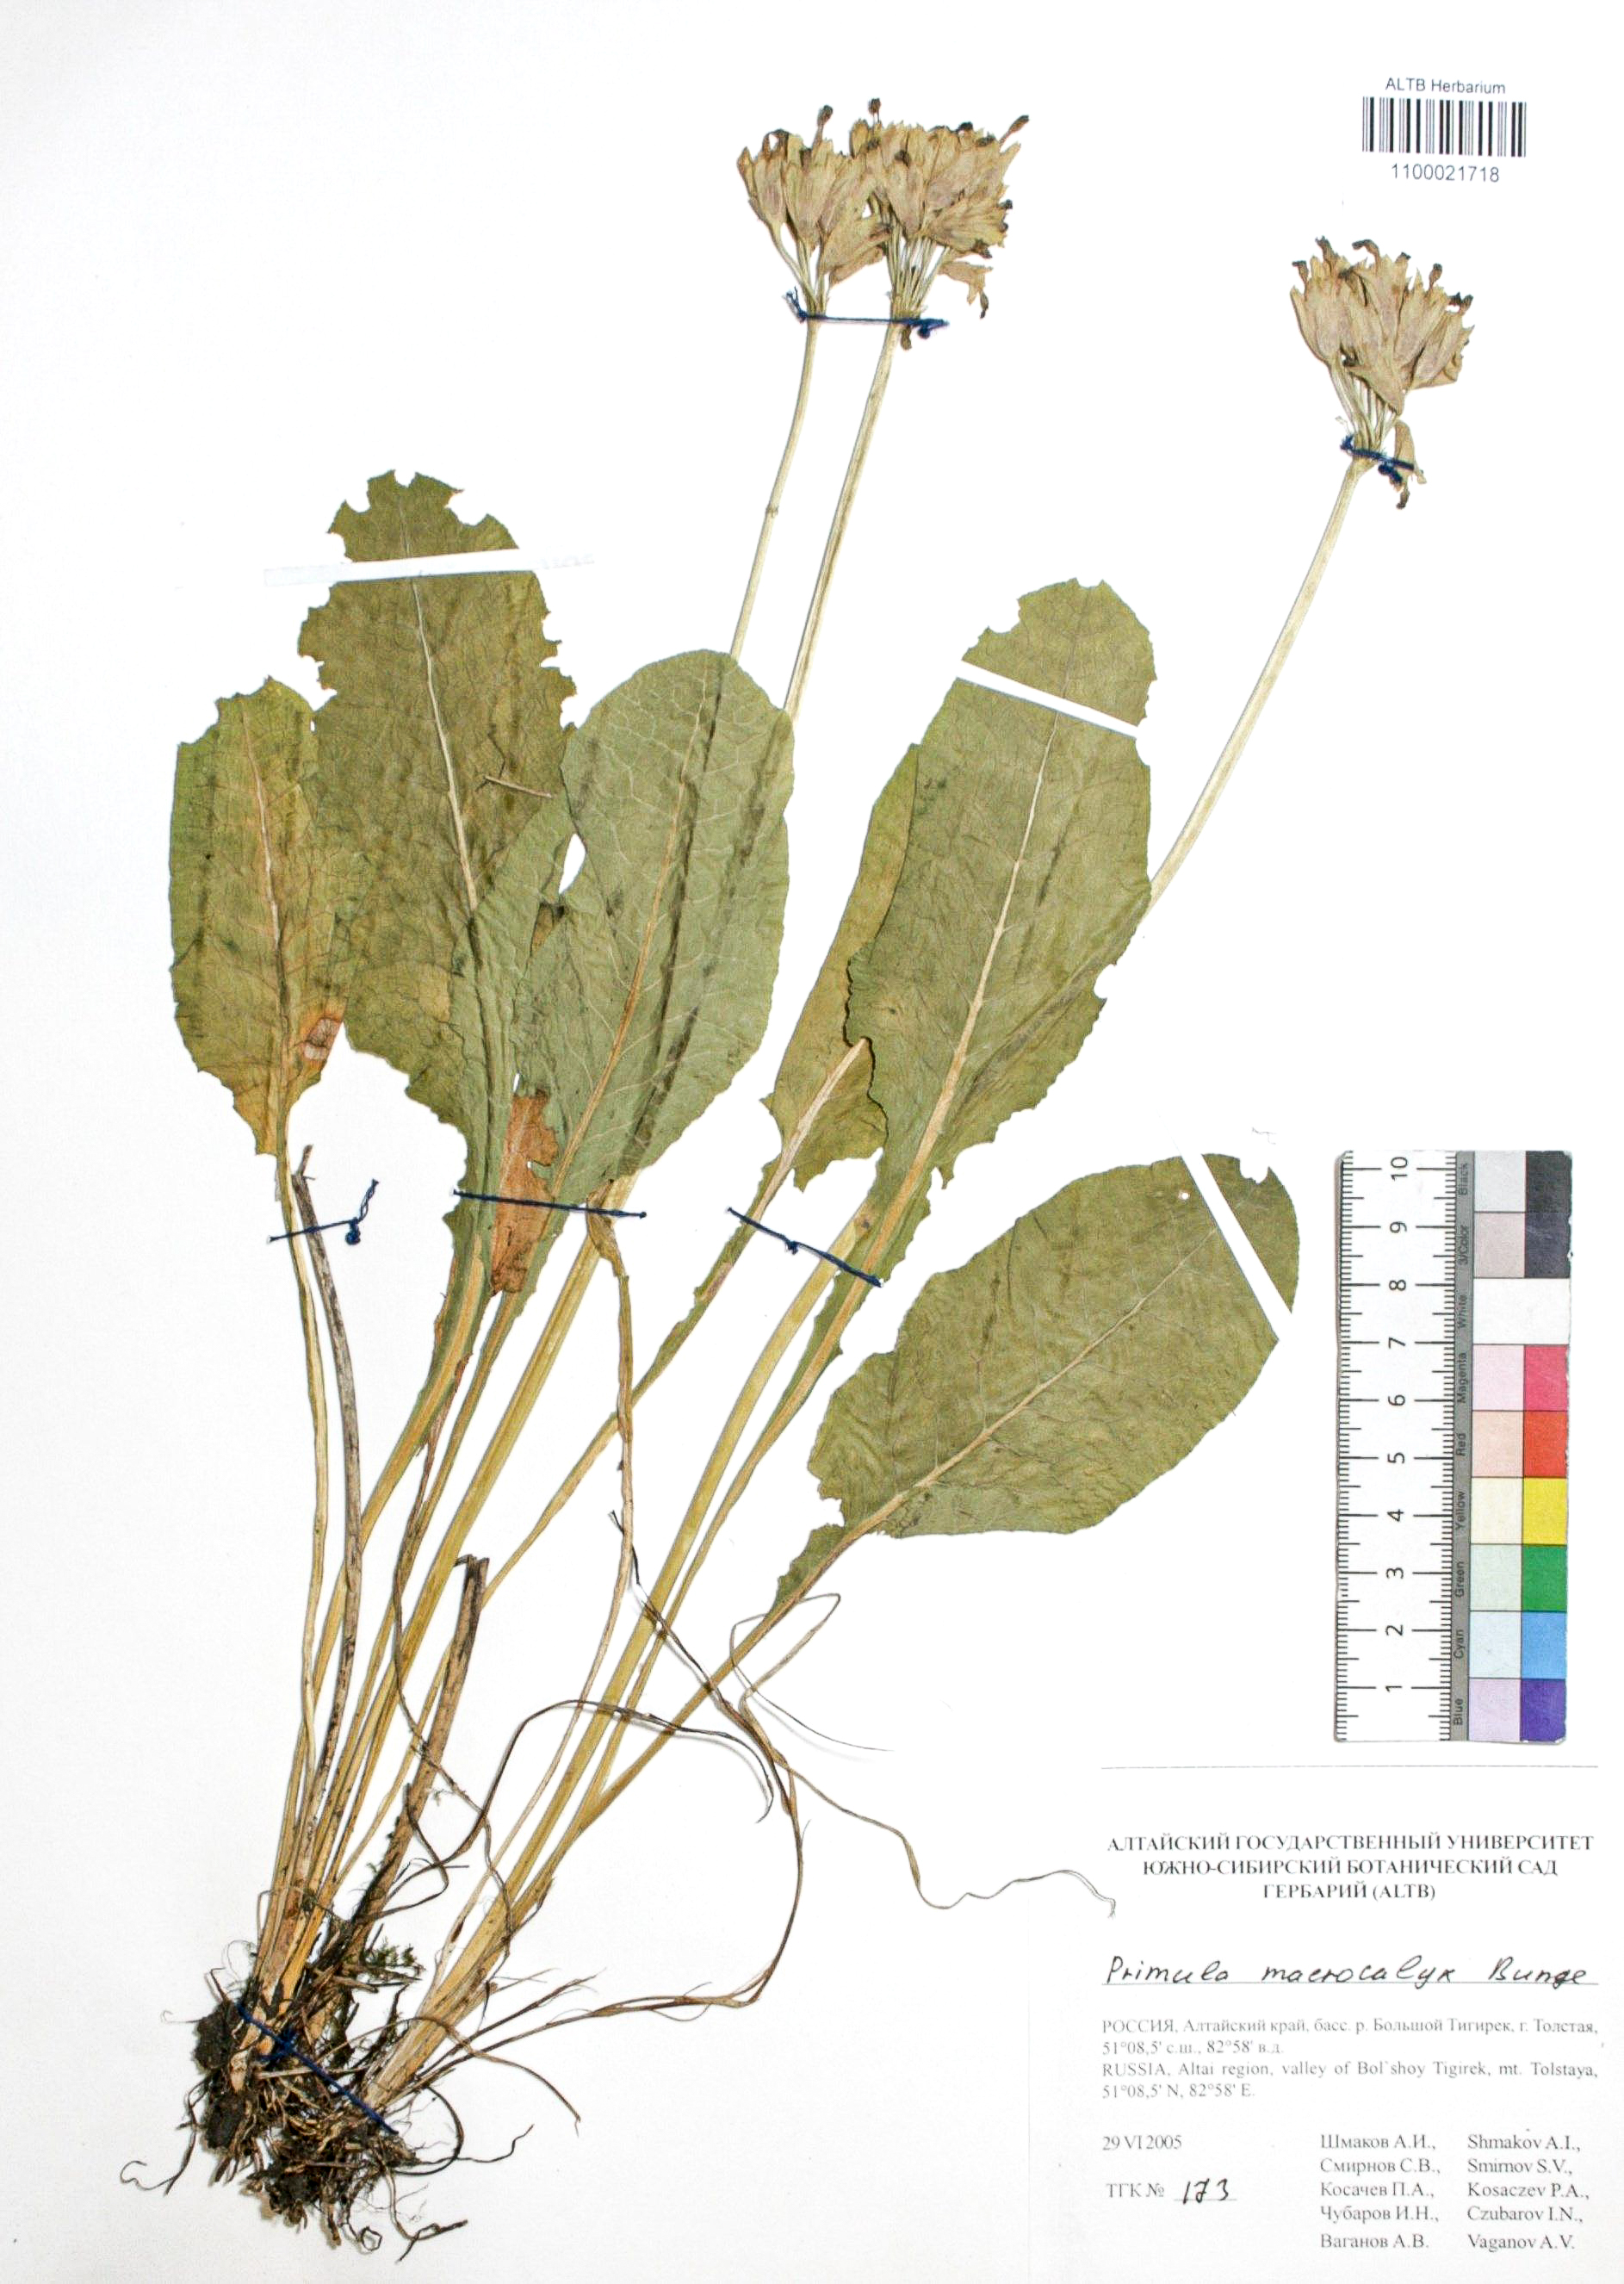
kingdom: Plantae
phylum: Tracheophyta
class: Magnoliopsida
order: Ericales
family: Primulaceae
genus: Primula
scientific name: Primula veris
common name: Cowslip
